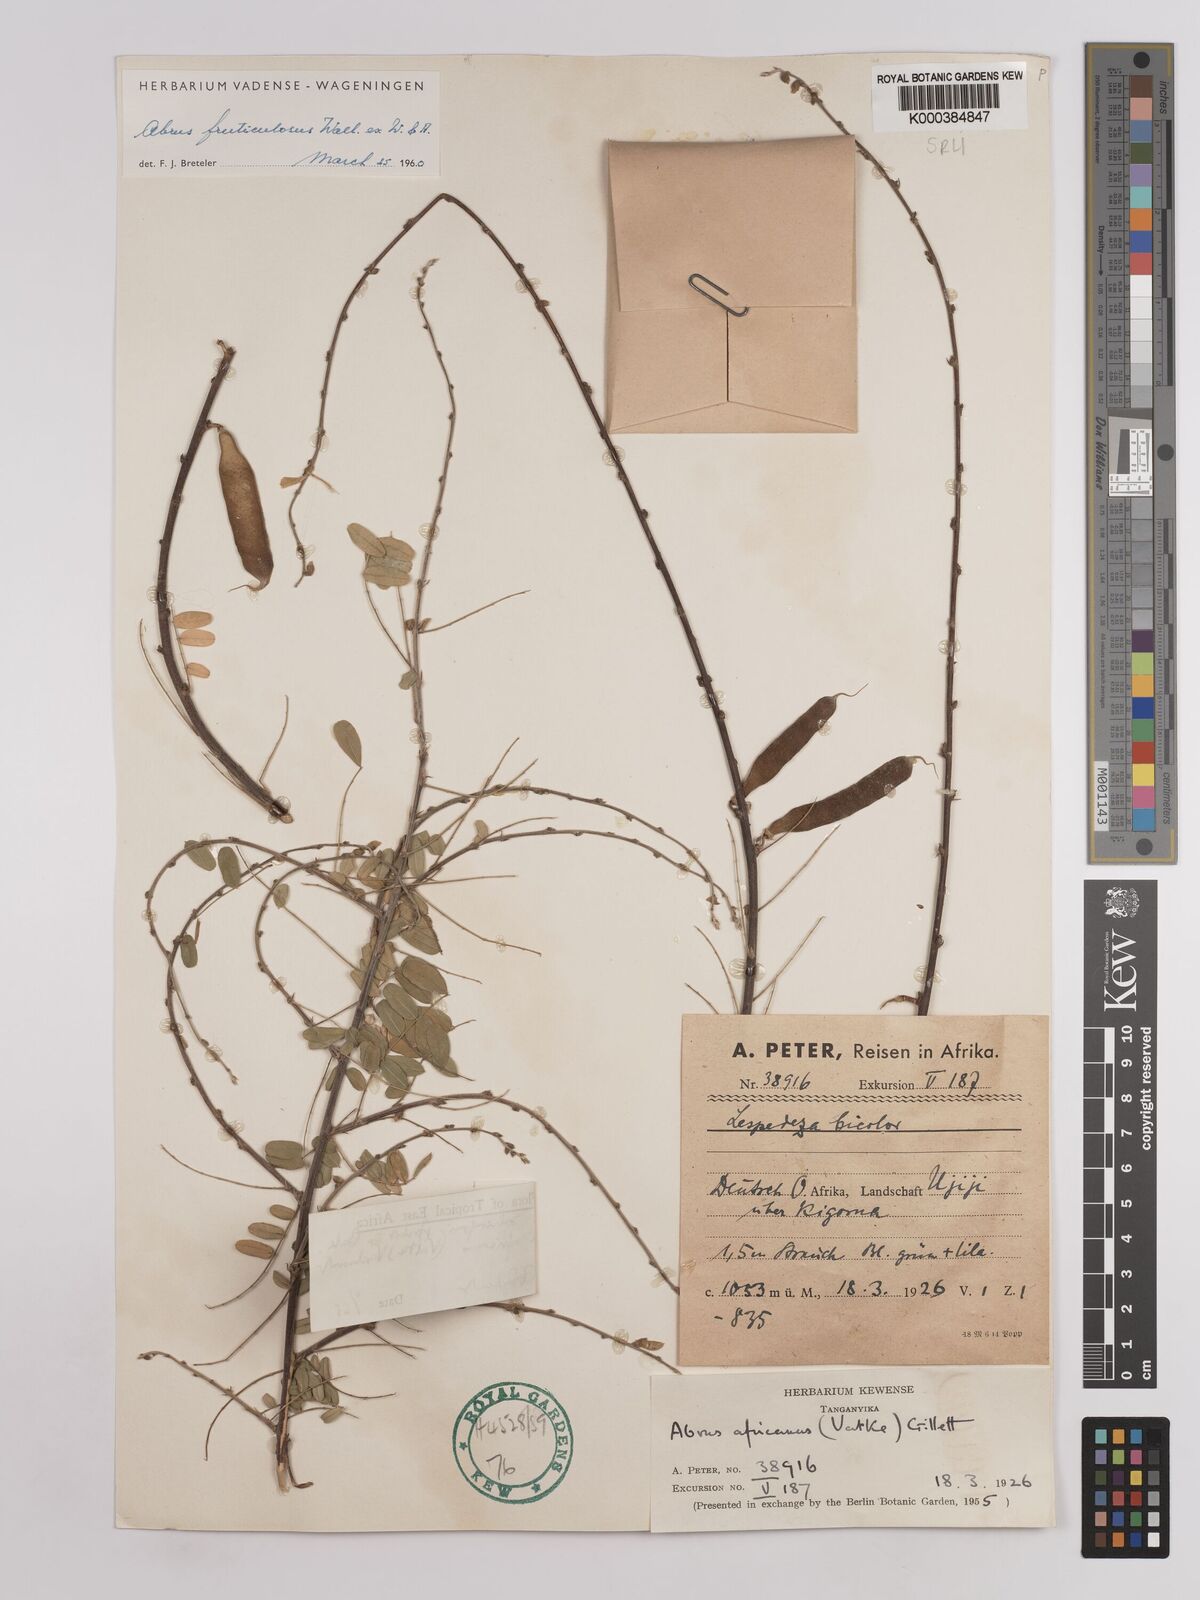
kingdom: Plantae
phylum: Tracheophyta
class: Magnoliopsida
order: Fabales
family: Fabaceae
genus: Abrus
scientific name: Abrus fruticulosus
